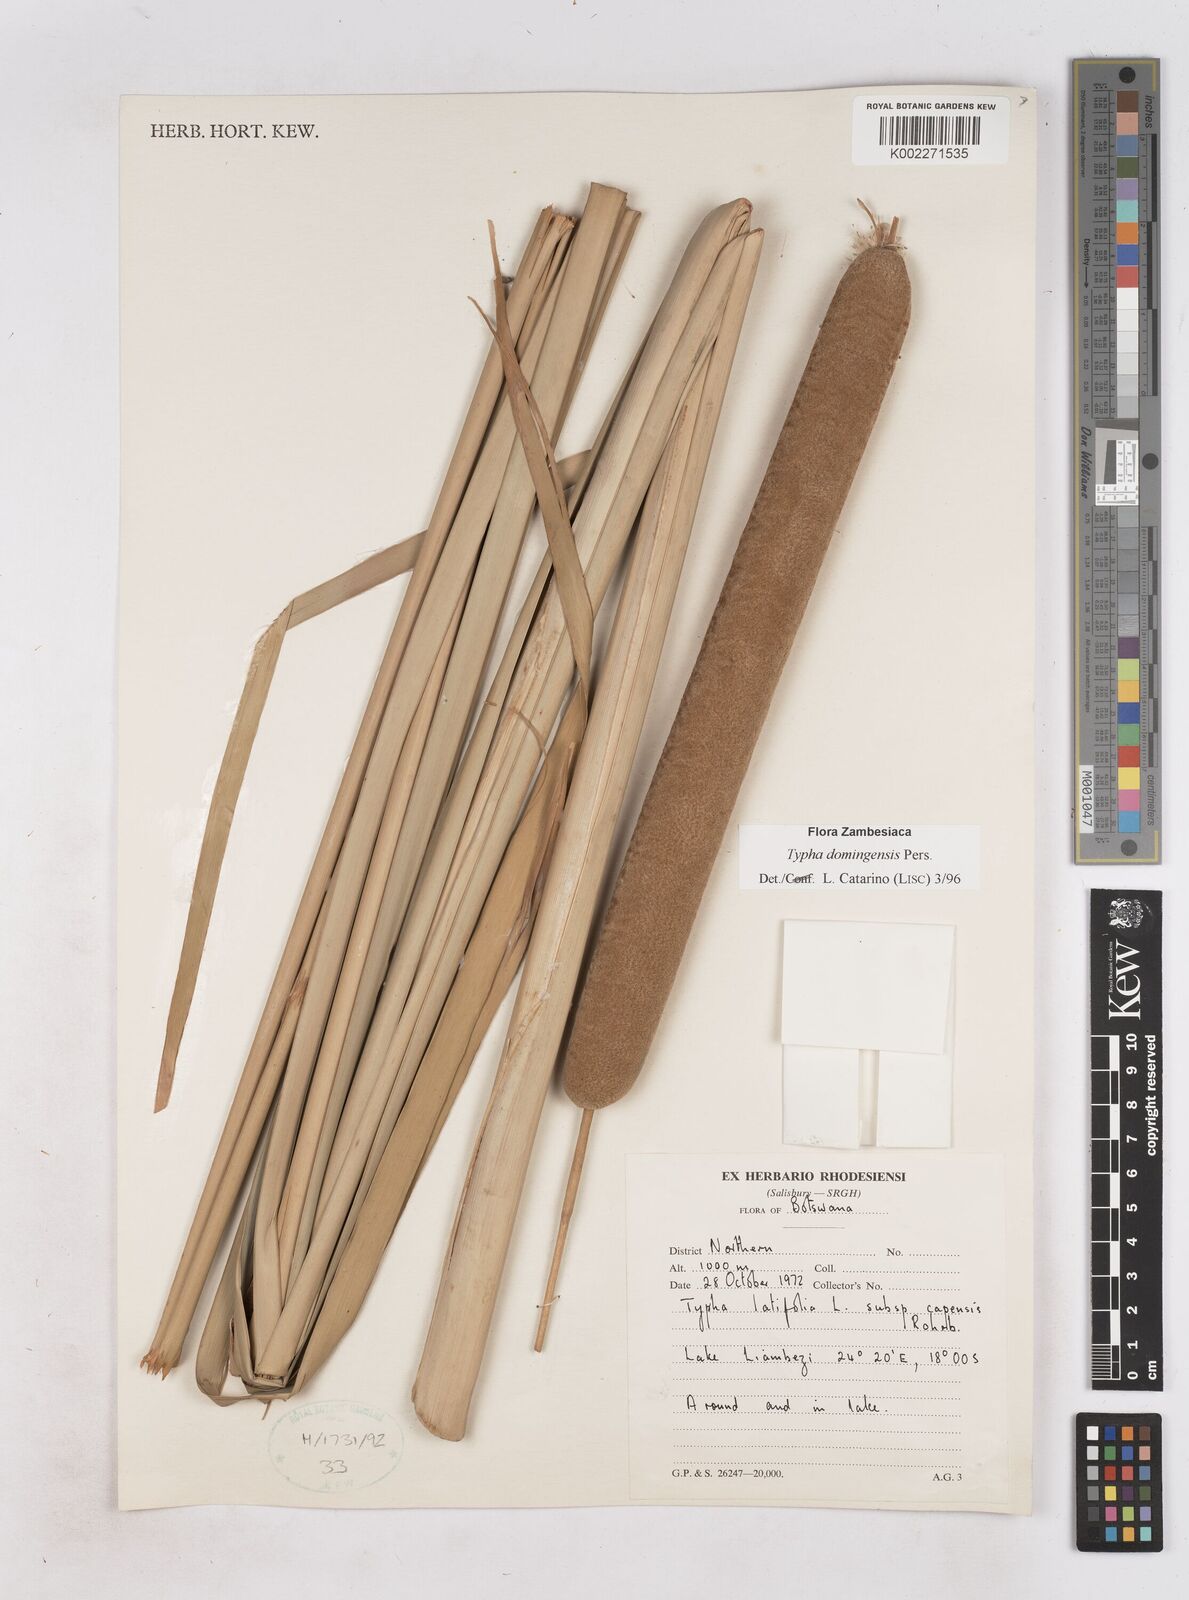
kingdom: Plantae
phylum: Tracheophyta
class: Liliopsida
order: Poales
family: Typhaceae
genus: Typha
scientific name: Typha domingensis
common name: Southern cattail
